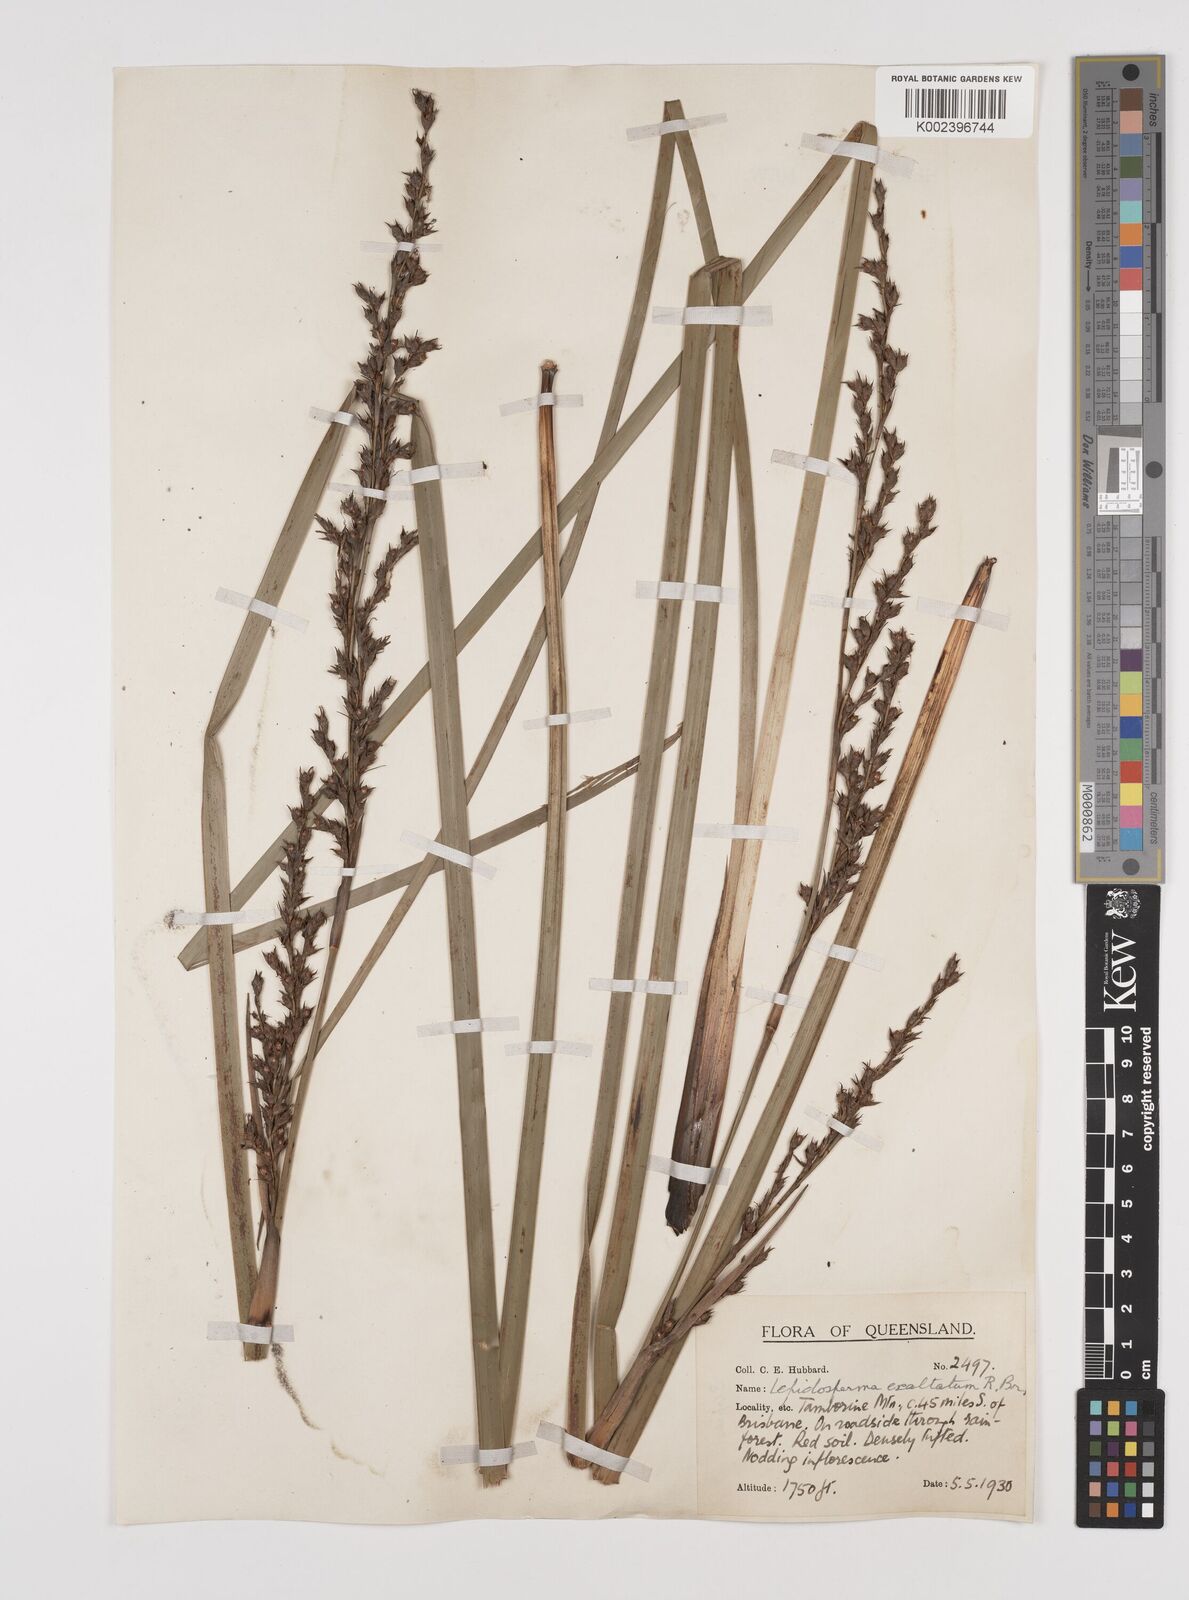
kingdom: Plantae
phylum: Tracheophyta
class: Liliopsida
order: Poales
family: Cyperaceae
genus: Lepidosperma
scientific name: Lepidosperma laterale
